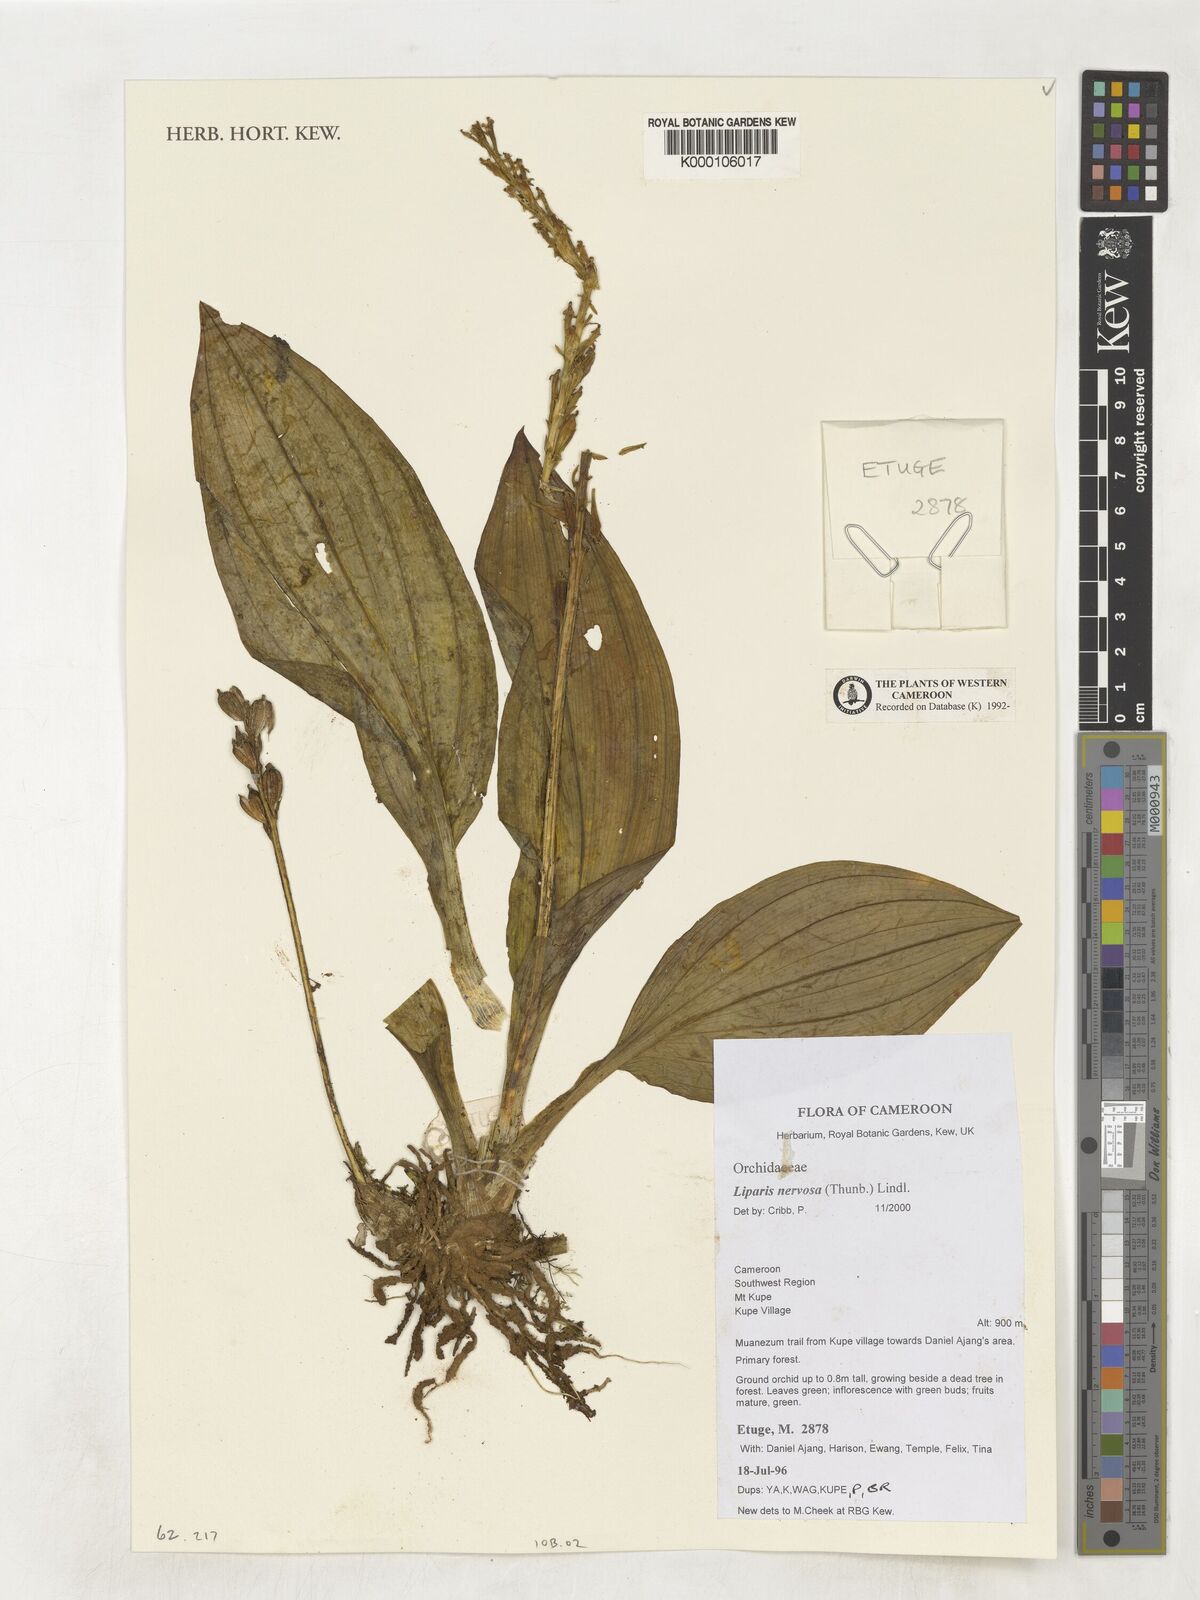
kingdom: Plantae
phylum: Tracheophyta
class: Liliopsida
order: Asparagales
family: Orchidaceae
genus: Liparis
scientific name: Liparis nervosa
